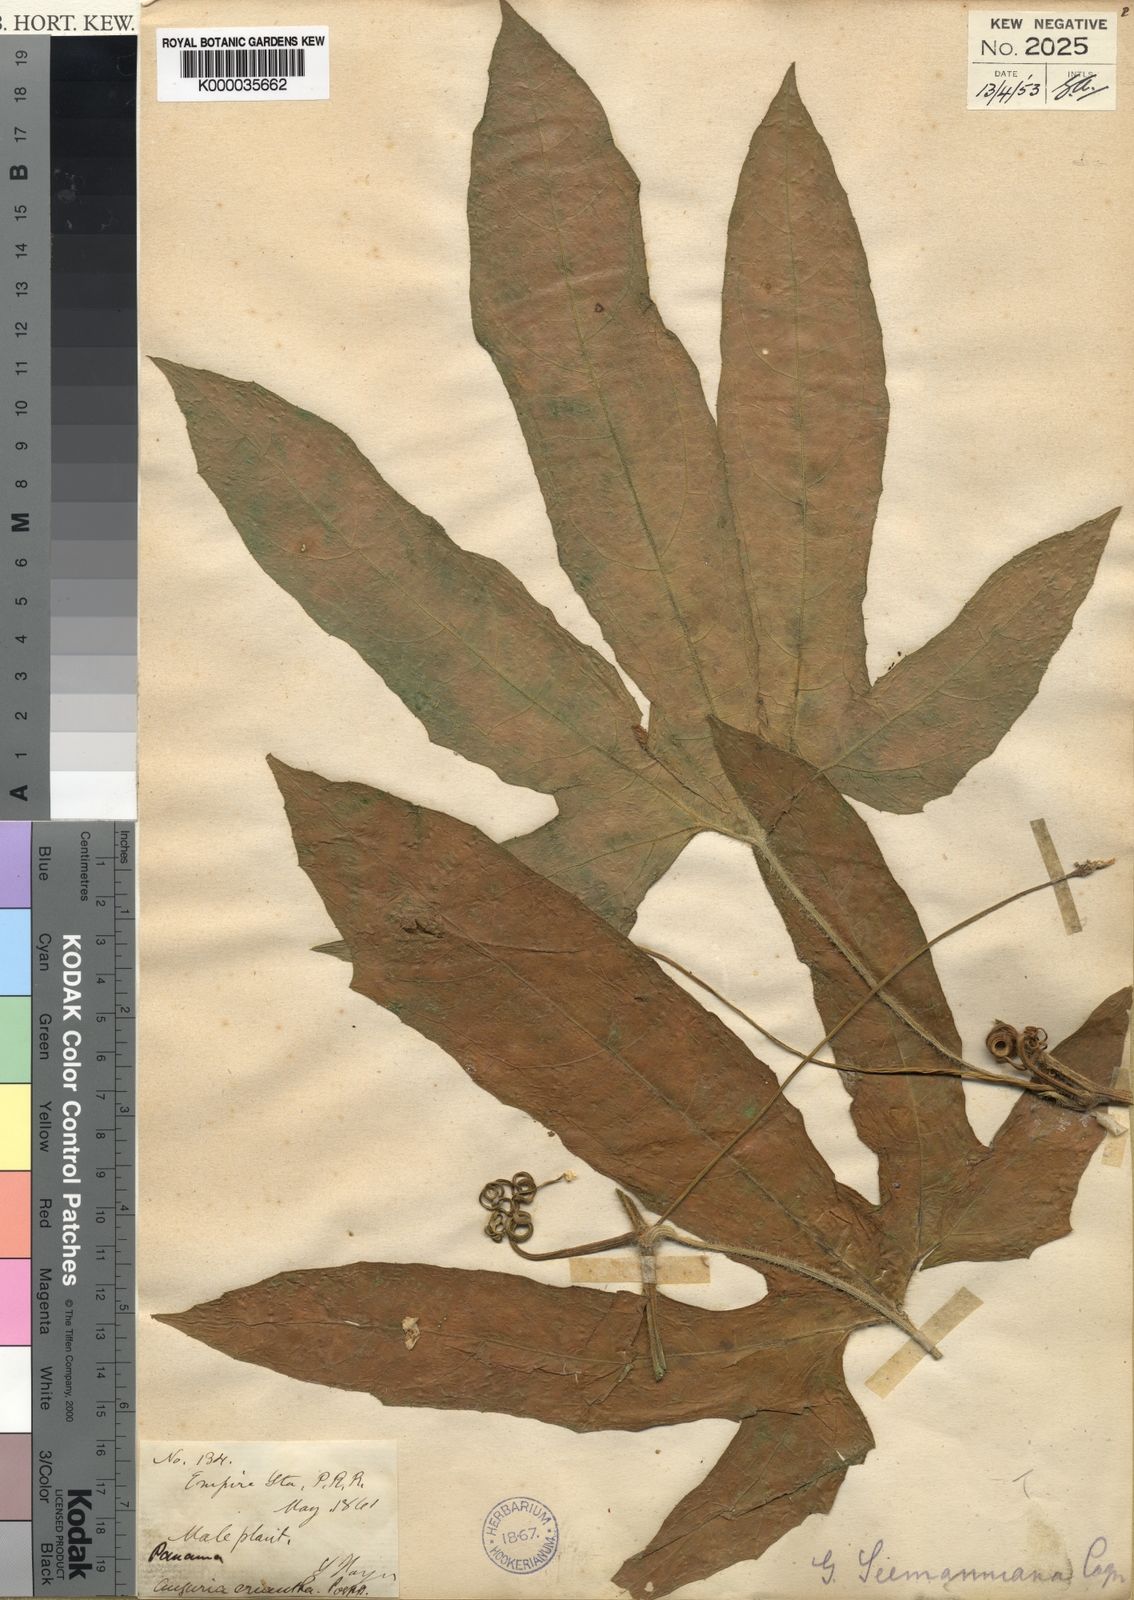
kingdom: Plantae
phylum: Tracheophyta
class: Magnoliopsida
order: Cucurbitales
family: Cucurbitaceae
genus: Gurania
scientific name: Gurania makoyana
